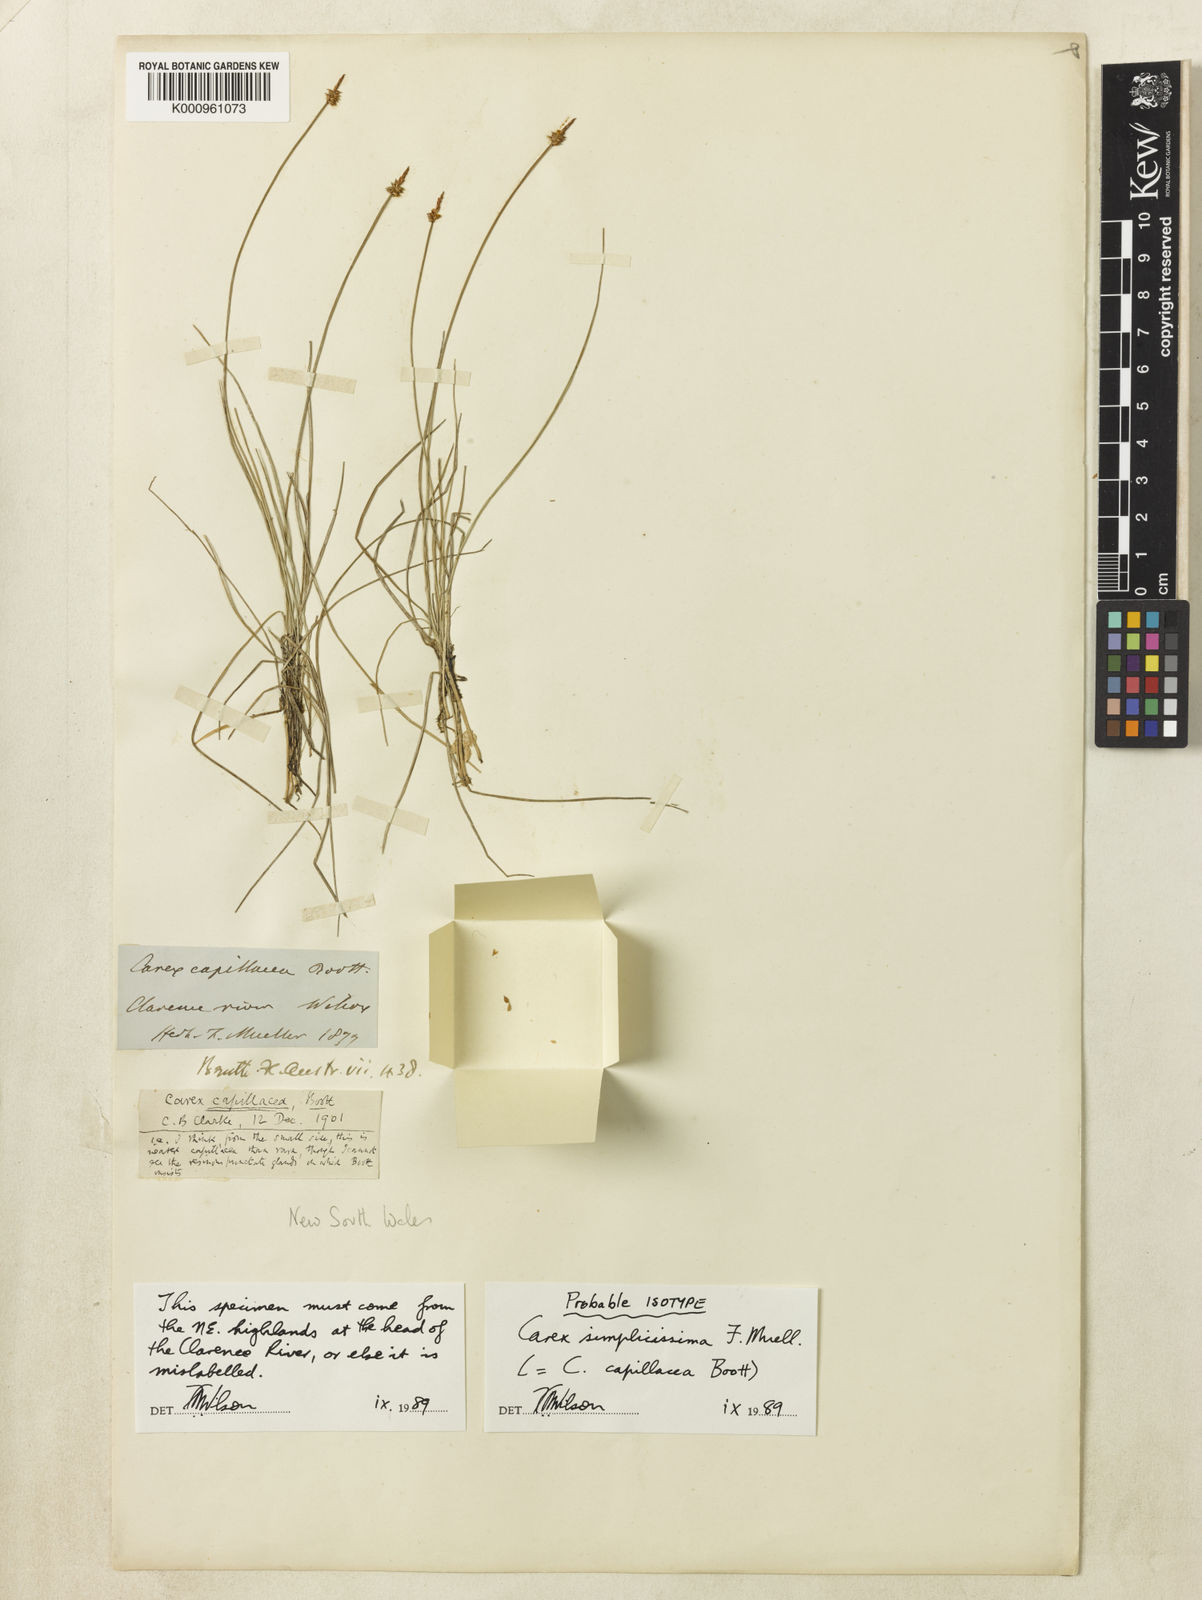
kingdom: Plantae
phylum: Tracheophyta
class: Liliopsida
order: Poales
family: Cyperaceae
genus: Carex
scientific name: Carex capillacea
